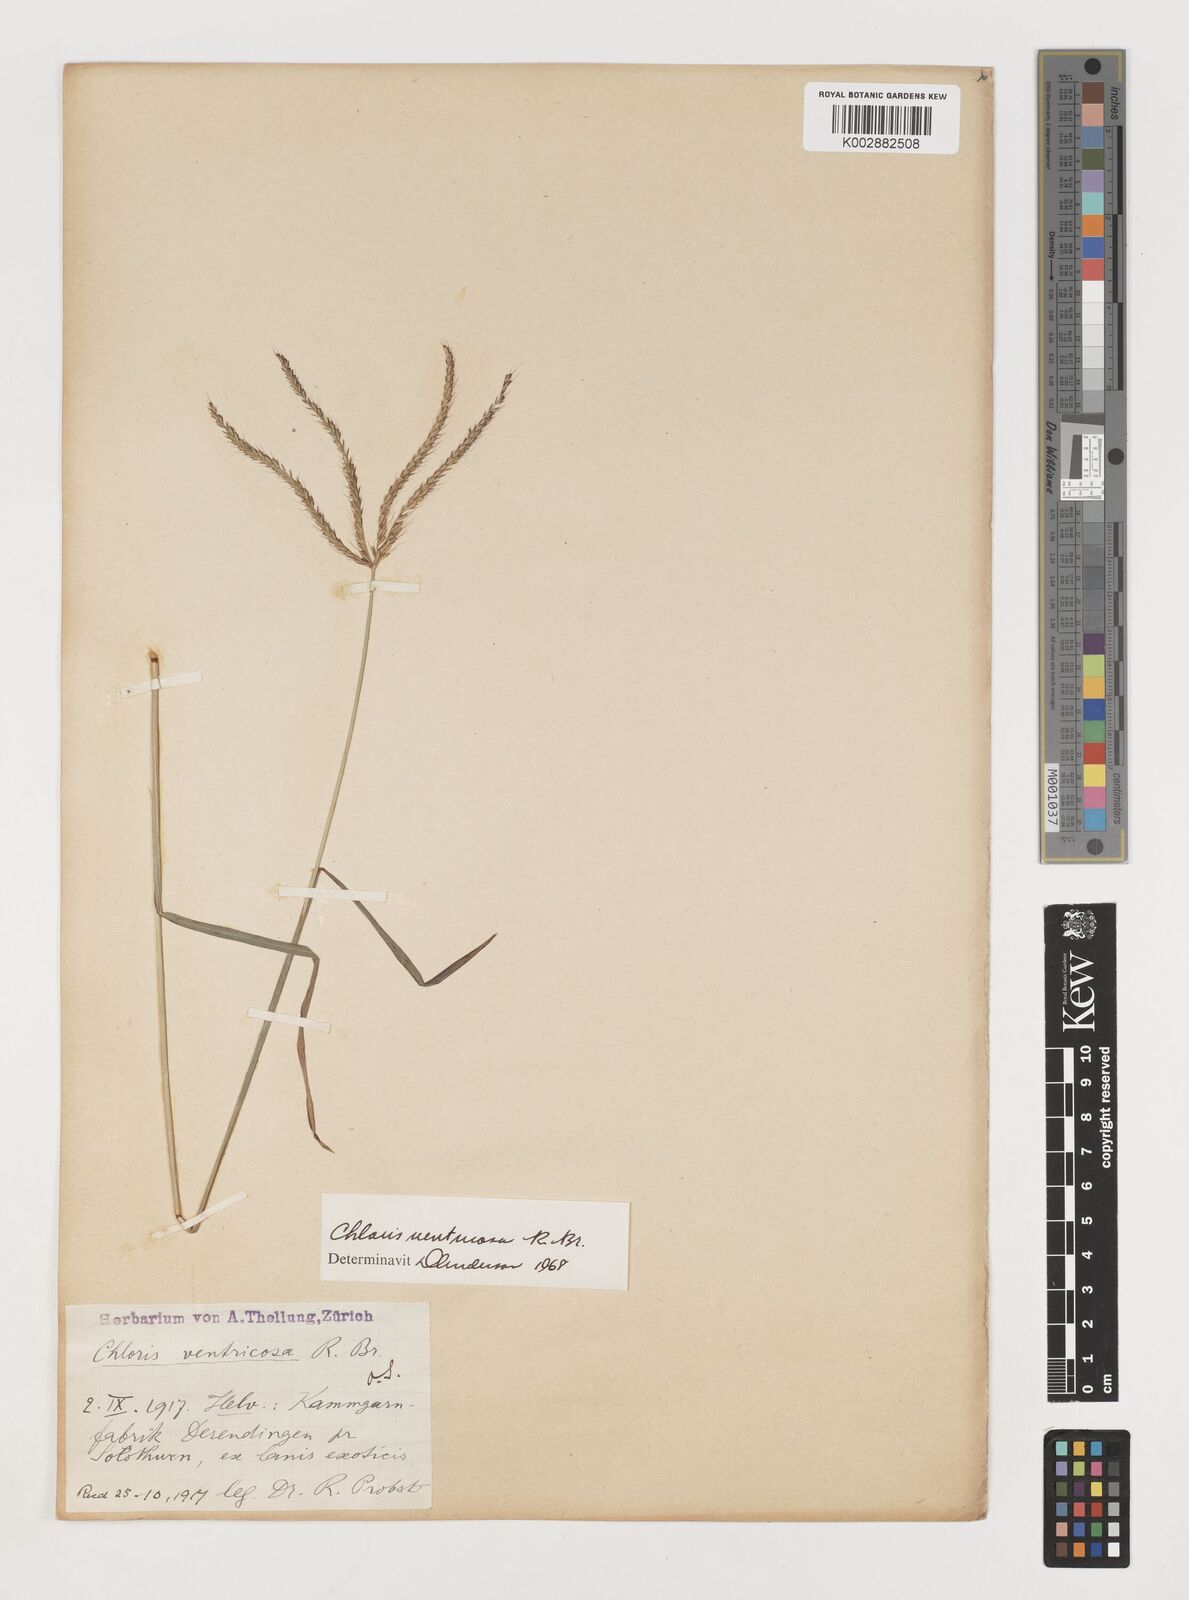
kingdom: Plantae
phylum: Tracheophyta
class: Liliopsida
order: Poales
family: Poaceae
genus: Chloris
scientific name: Chloris ventricosa
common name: Australian windmill grass
